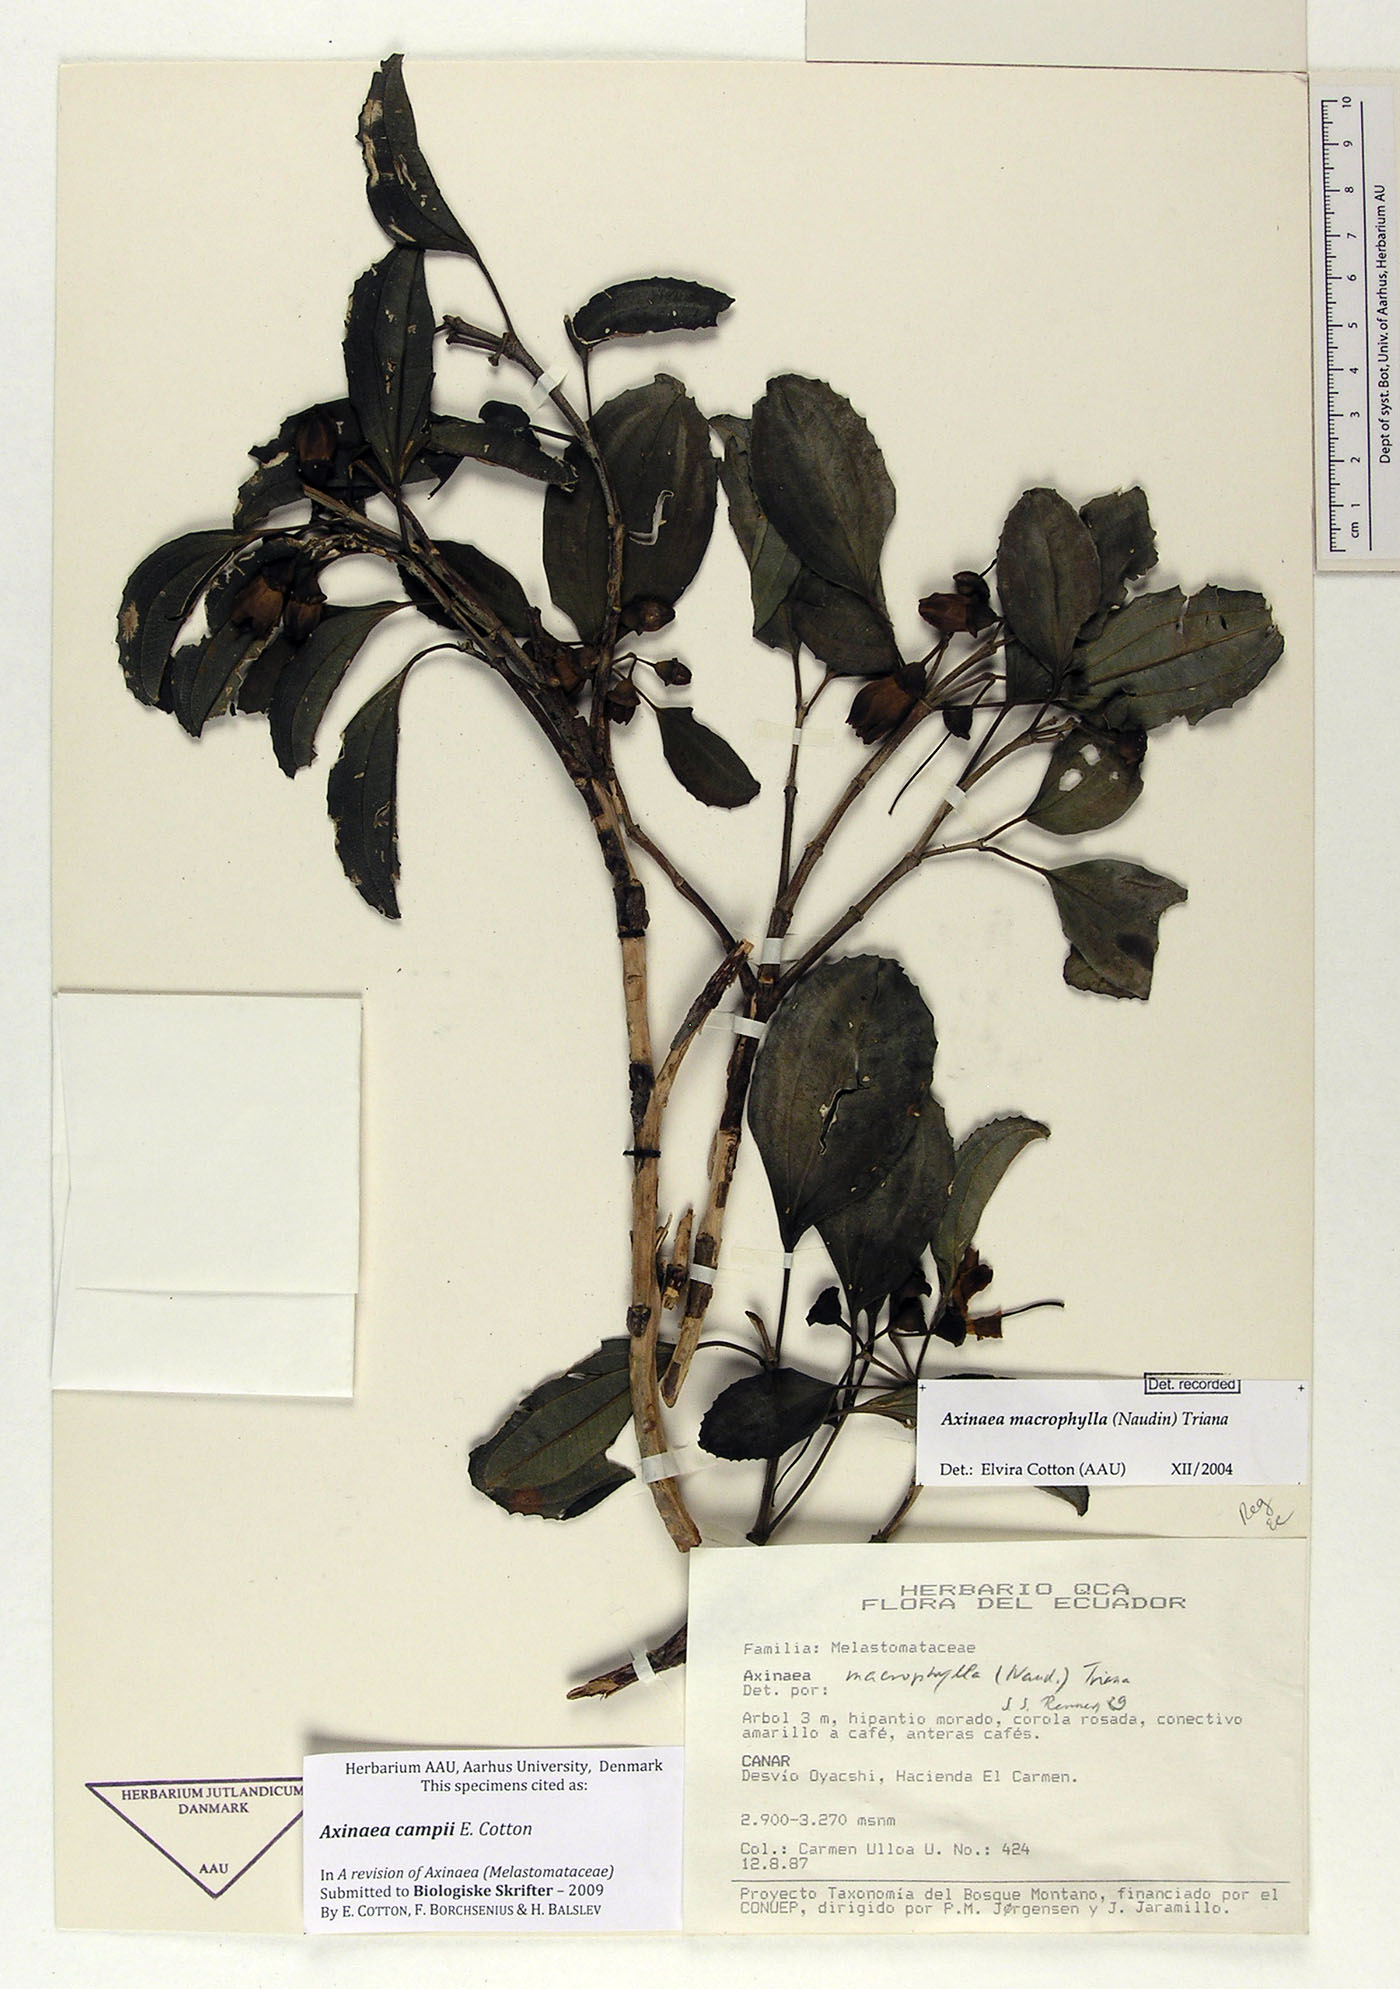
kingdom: Plantae
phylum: Tracheophyta
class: Magnoliopsida
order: Myrtales
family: Melastomataceae
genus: Axinaea
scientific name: Axinaea campii
